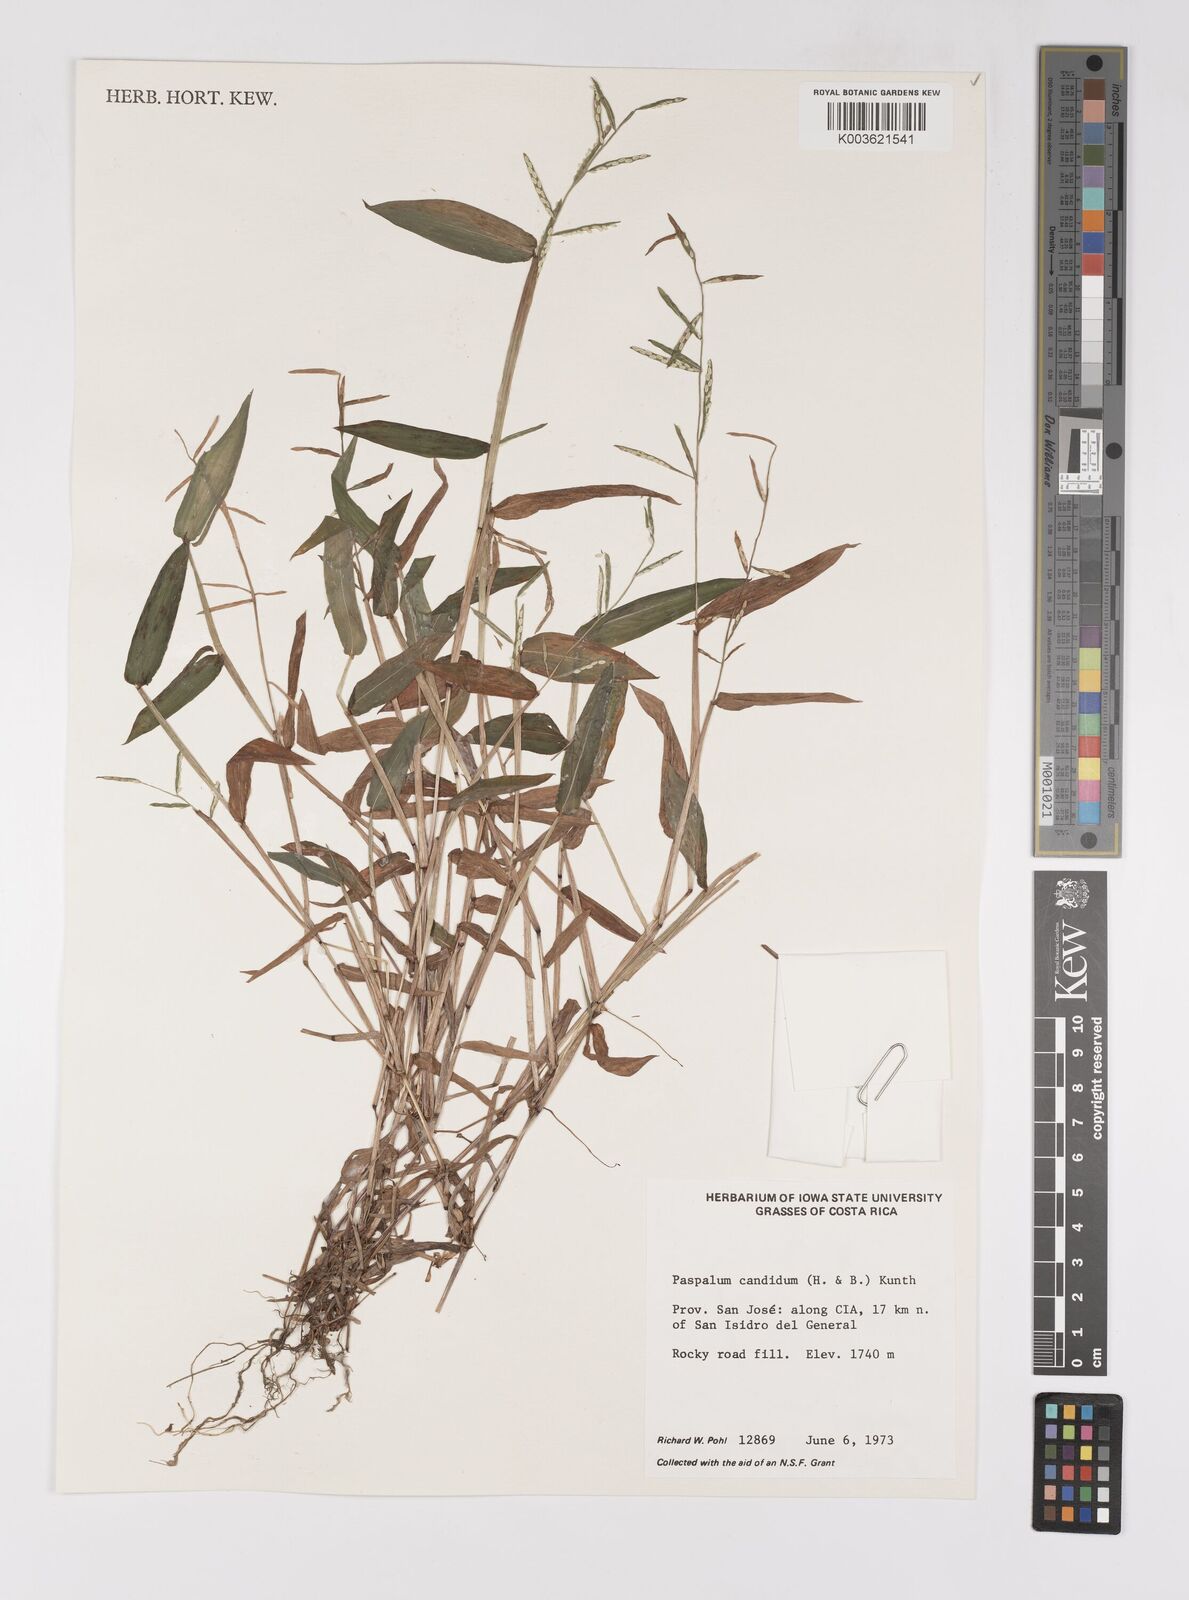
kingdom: Plantae
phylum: Tracheophyta
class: Liliopsida
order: Poales
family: Poaceae
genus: Paspalum
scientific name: Paspalum candidum
